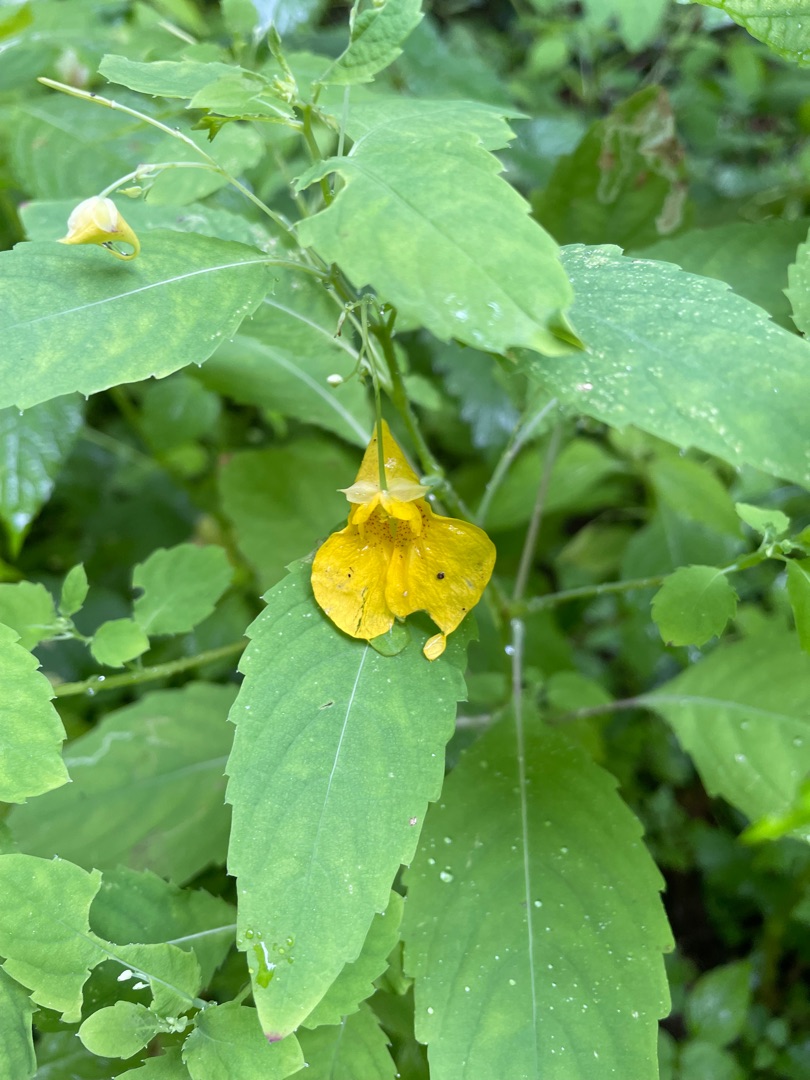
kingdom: Plantae
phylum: Tracheophyta
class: Magnoliopsida
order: Ericales
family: Balsaminaceae
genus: Impatiens
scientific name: Impatiens noli-tangere
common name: Spring-balsamin
